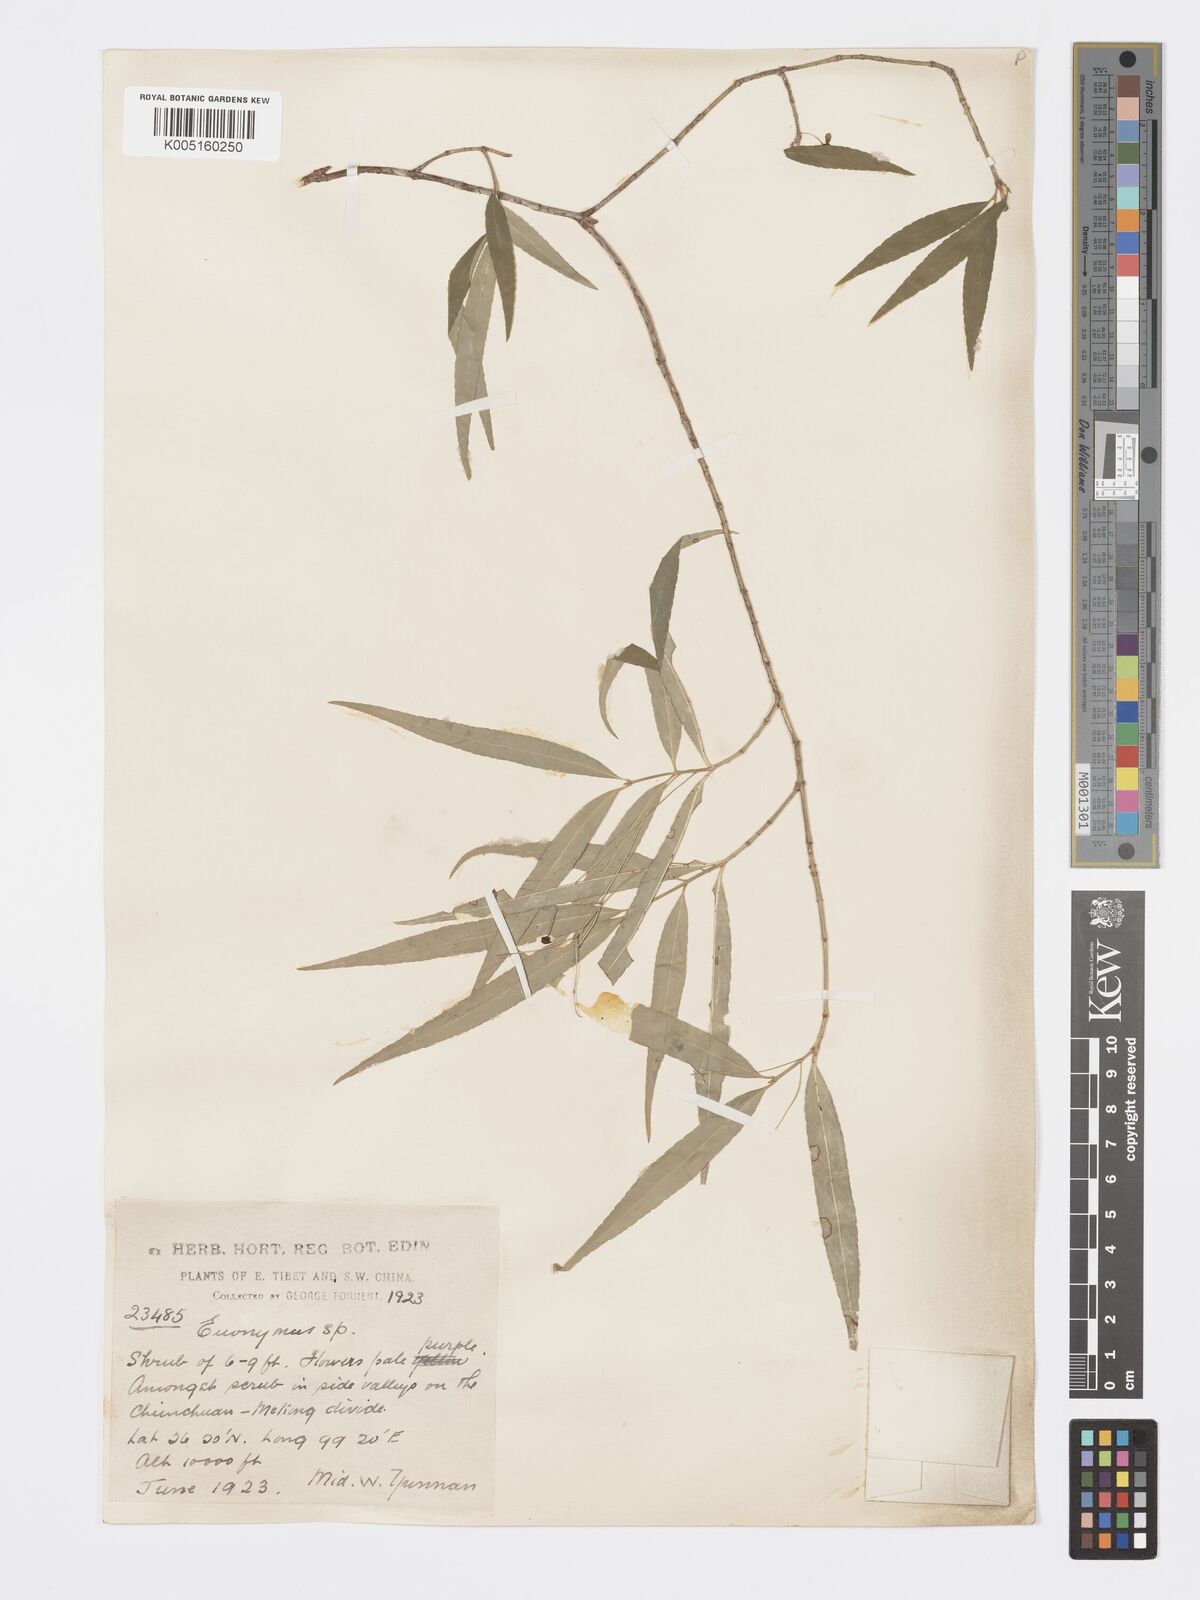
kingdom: Plantae
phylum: Tracheophyta
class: Magnoliopsida
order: Celastrales
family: Celastraceae
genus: Euonymus
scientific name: Euonymus cornutus
